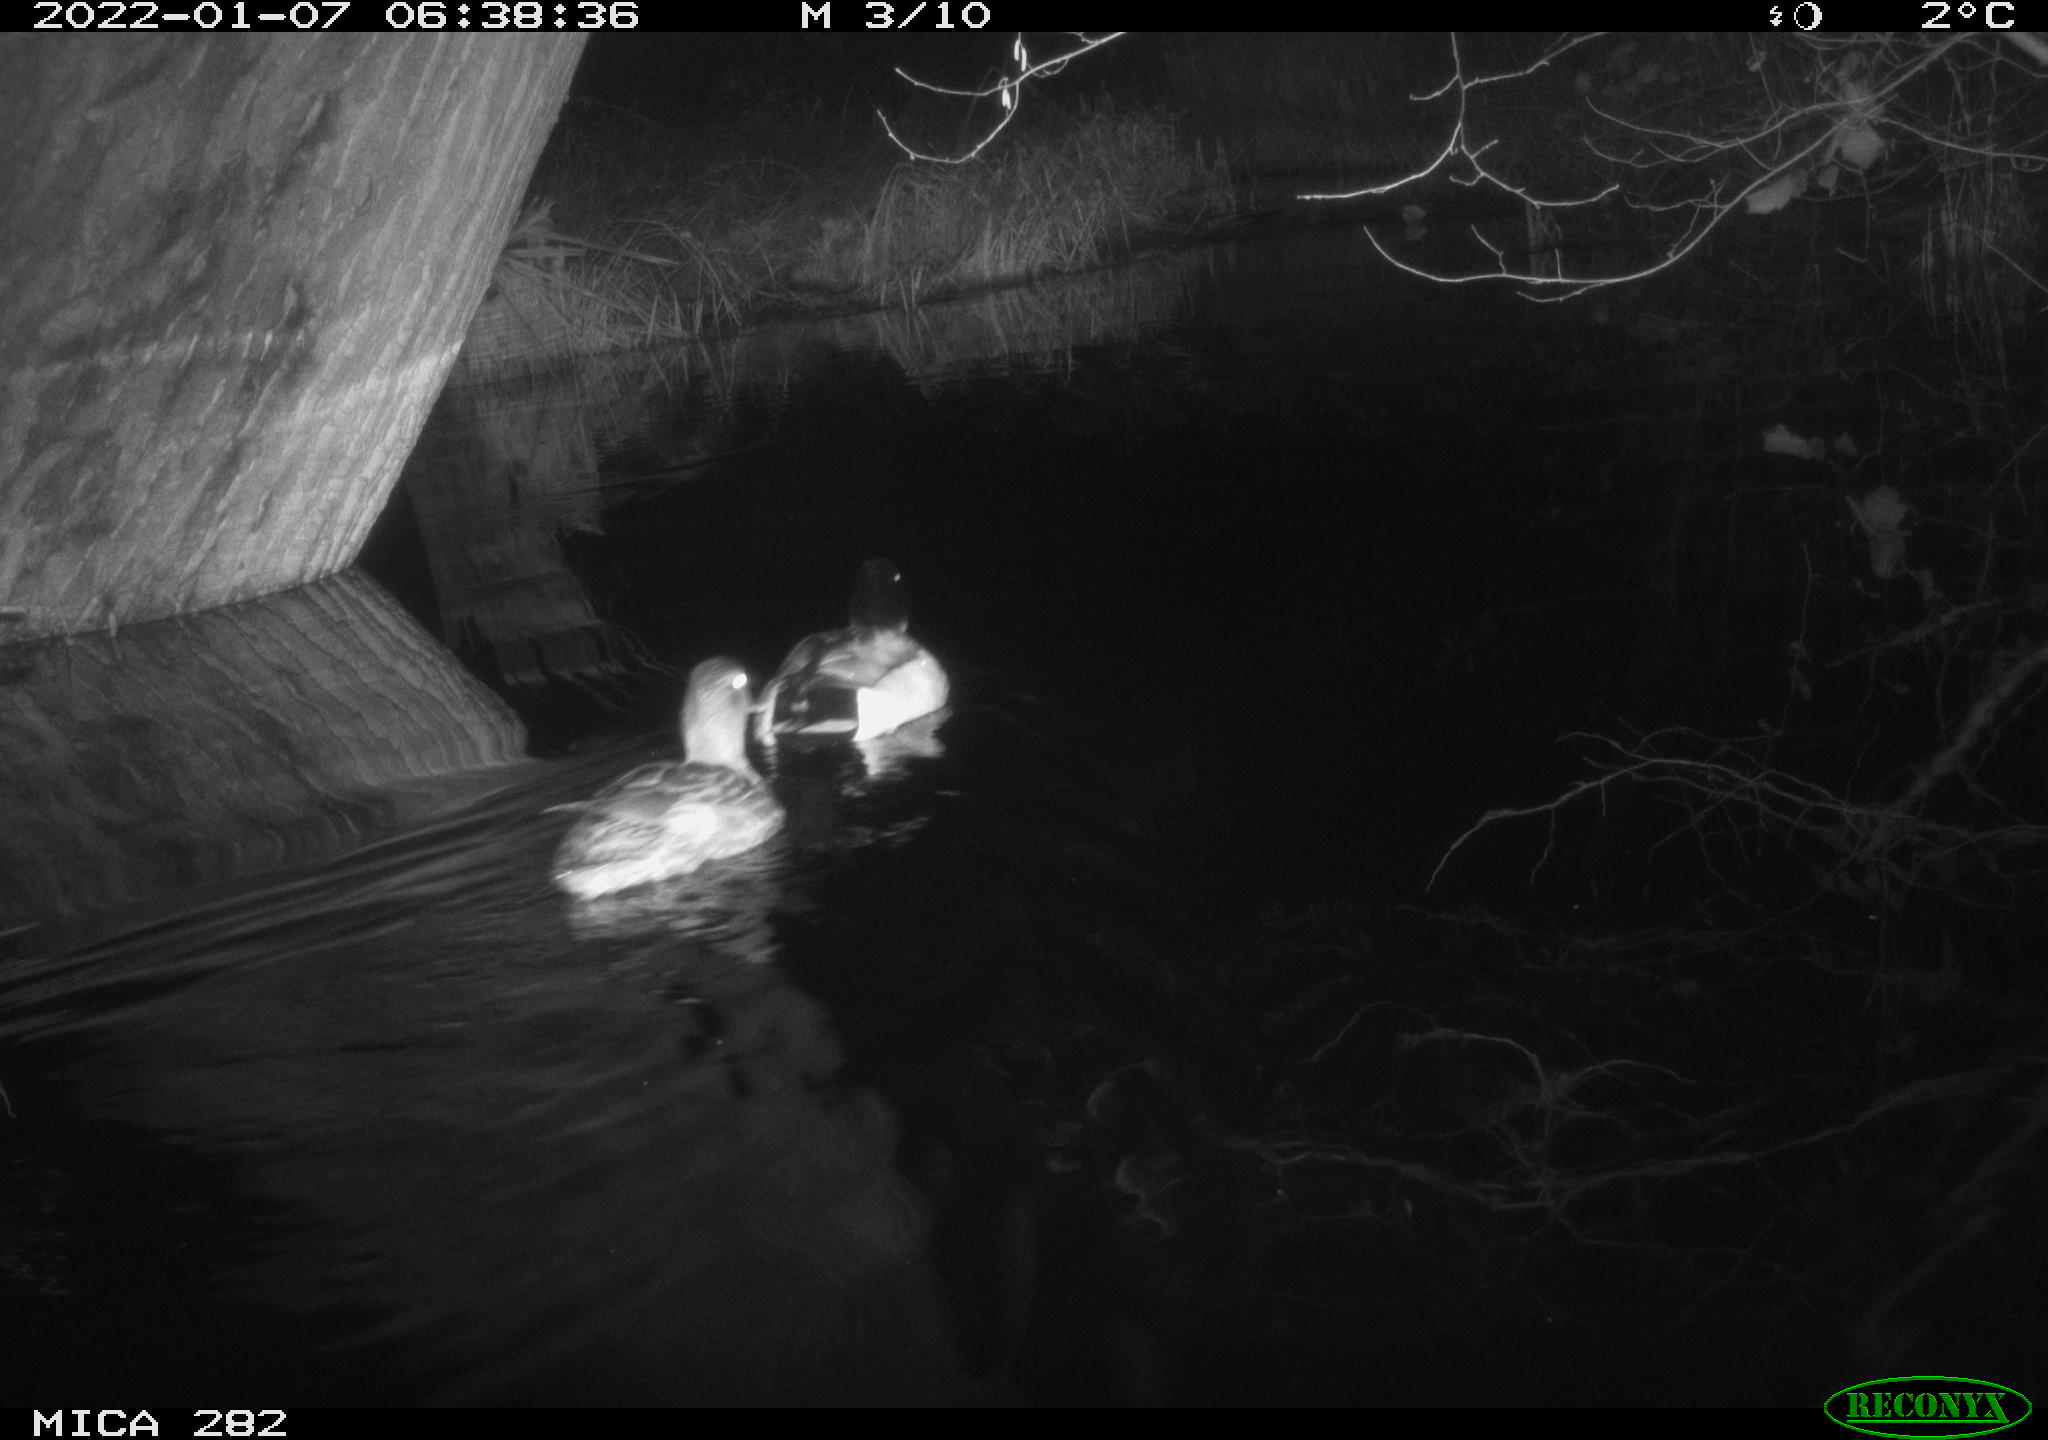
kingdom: Animalia
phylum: Chordata
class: Aves
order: Anseriformes
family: Anatidae
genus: Anas
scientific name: Anas platyrhynchos
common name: Mallard
